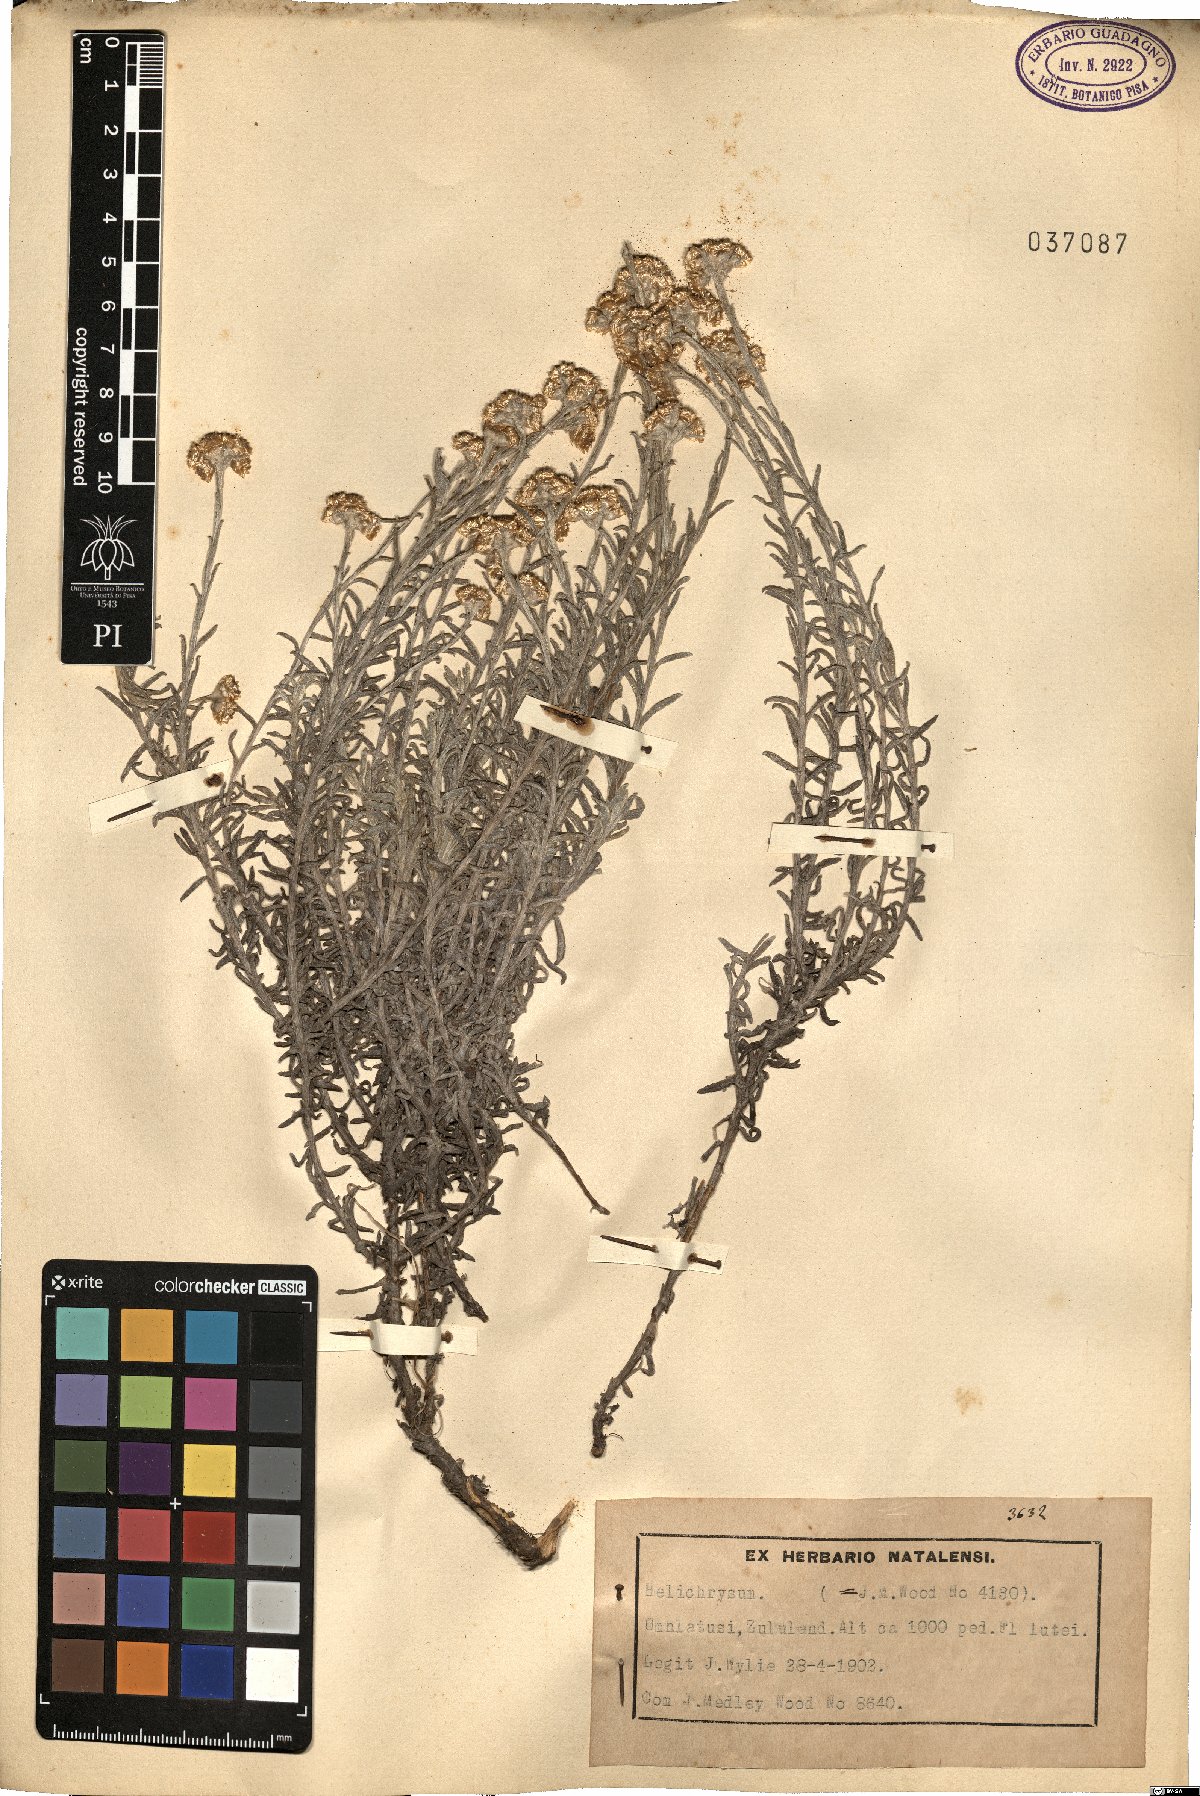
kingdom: Plantae
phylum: Tracheophyta
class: Magnoliopsida
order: Asterales
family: Asteraceae
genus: Helichrysum
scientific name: Helichrysum
